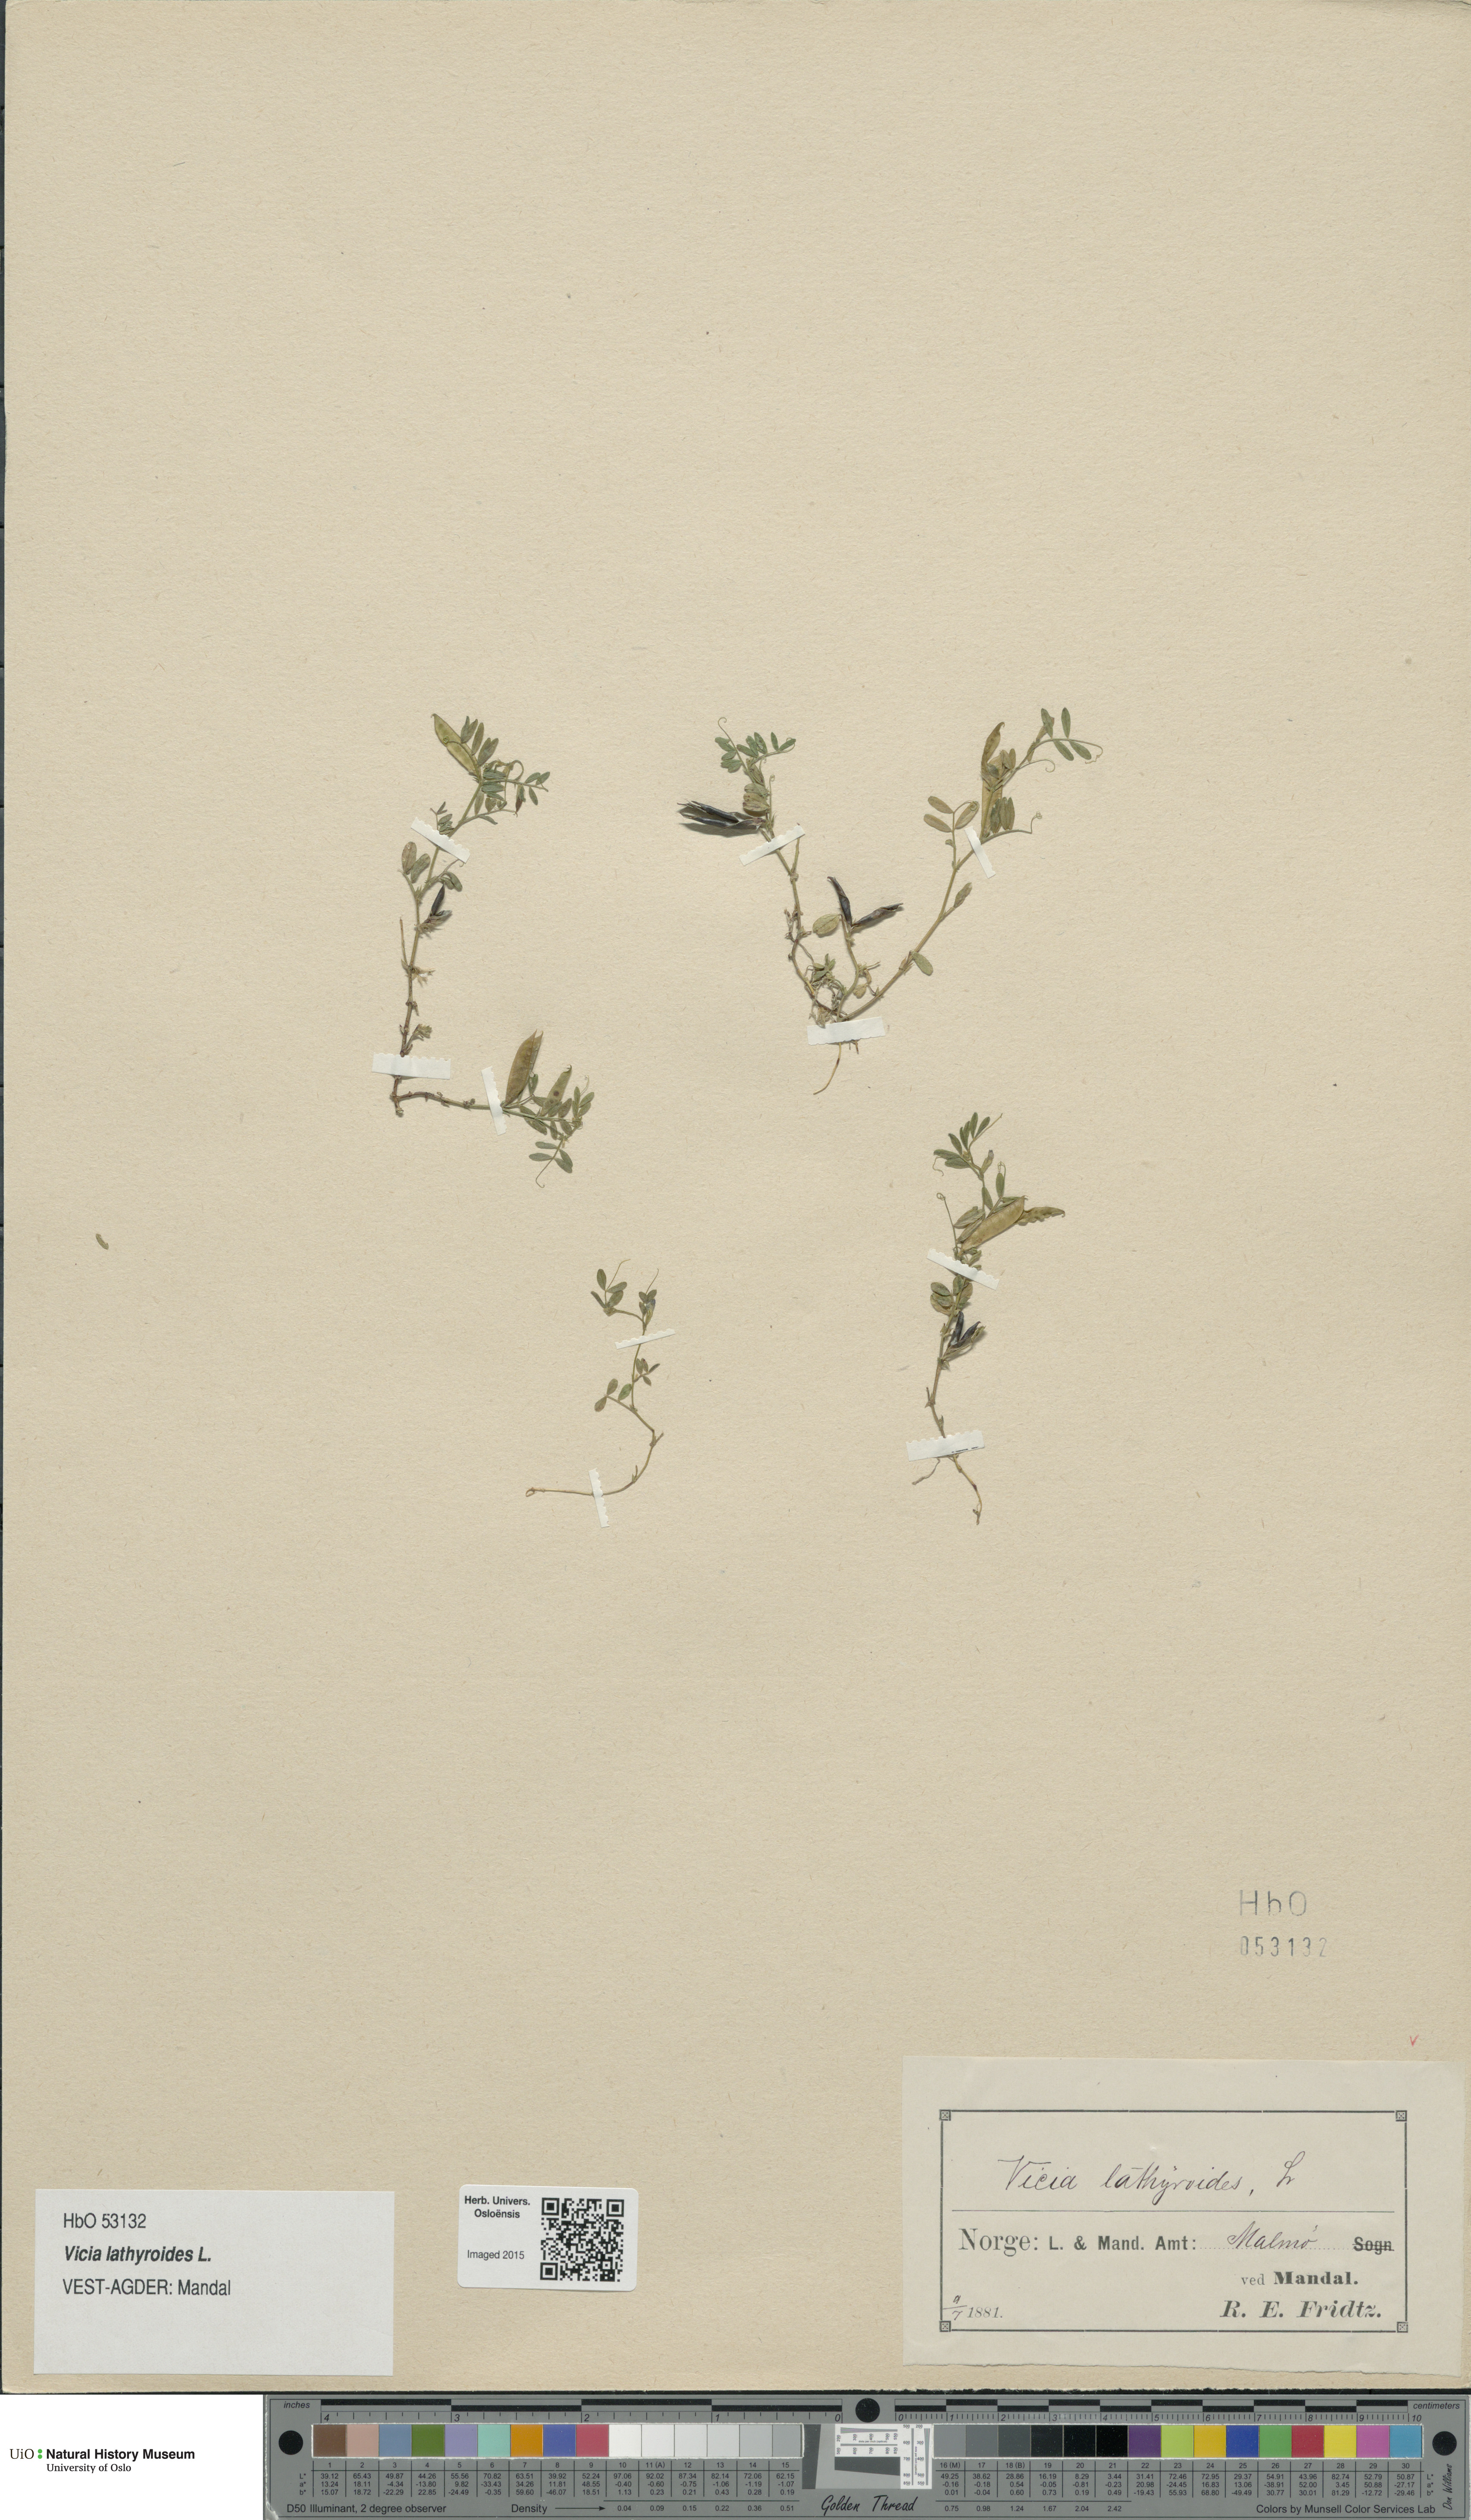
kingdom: Plantae
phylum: Tracheophyta
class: Magnoliopsida
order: Fabales
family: Fabaceae
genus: Vicia
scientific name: Vicia lathyroides
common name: Spring vetch
